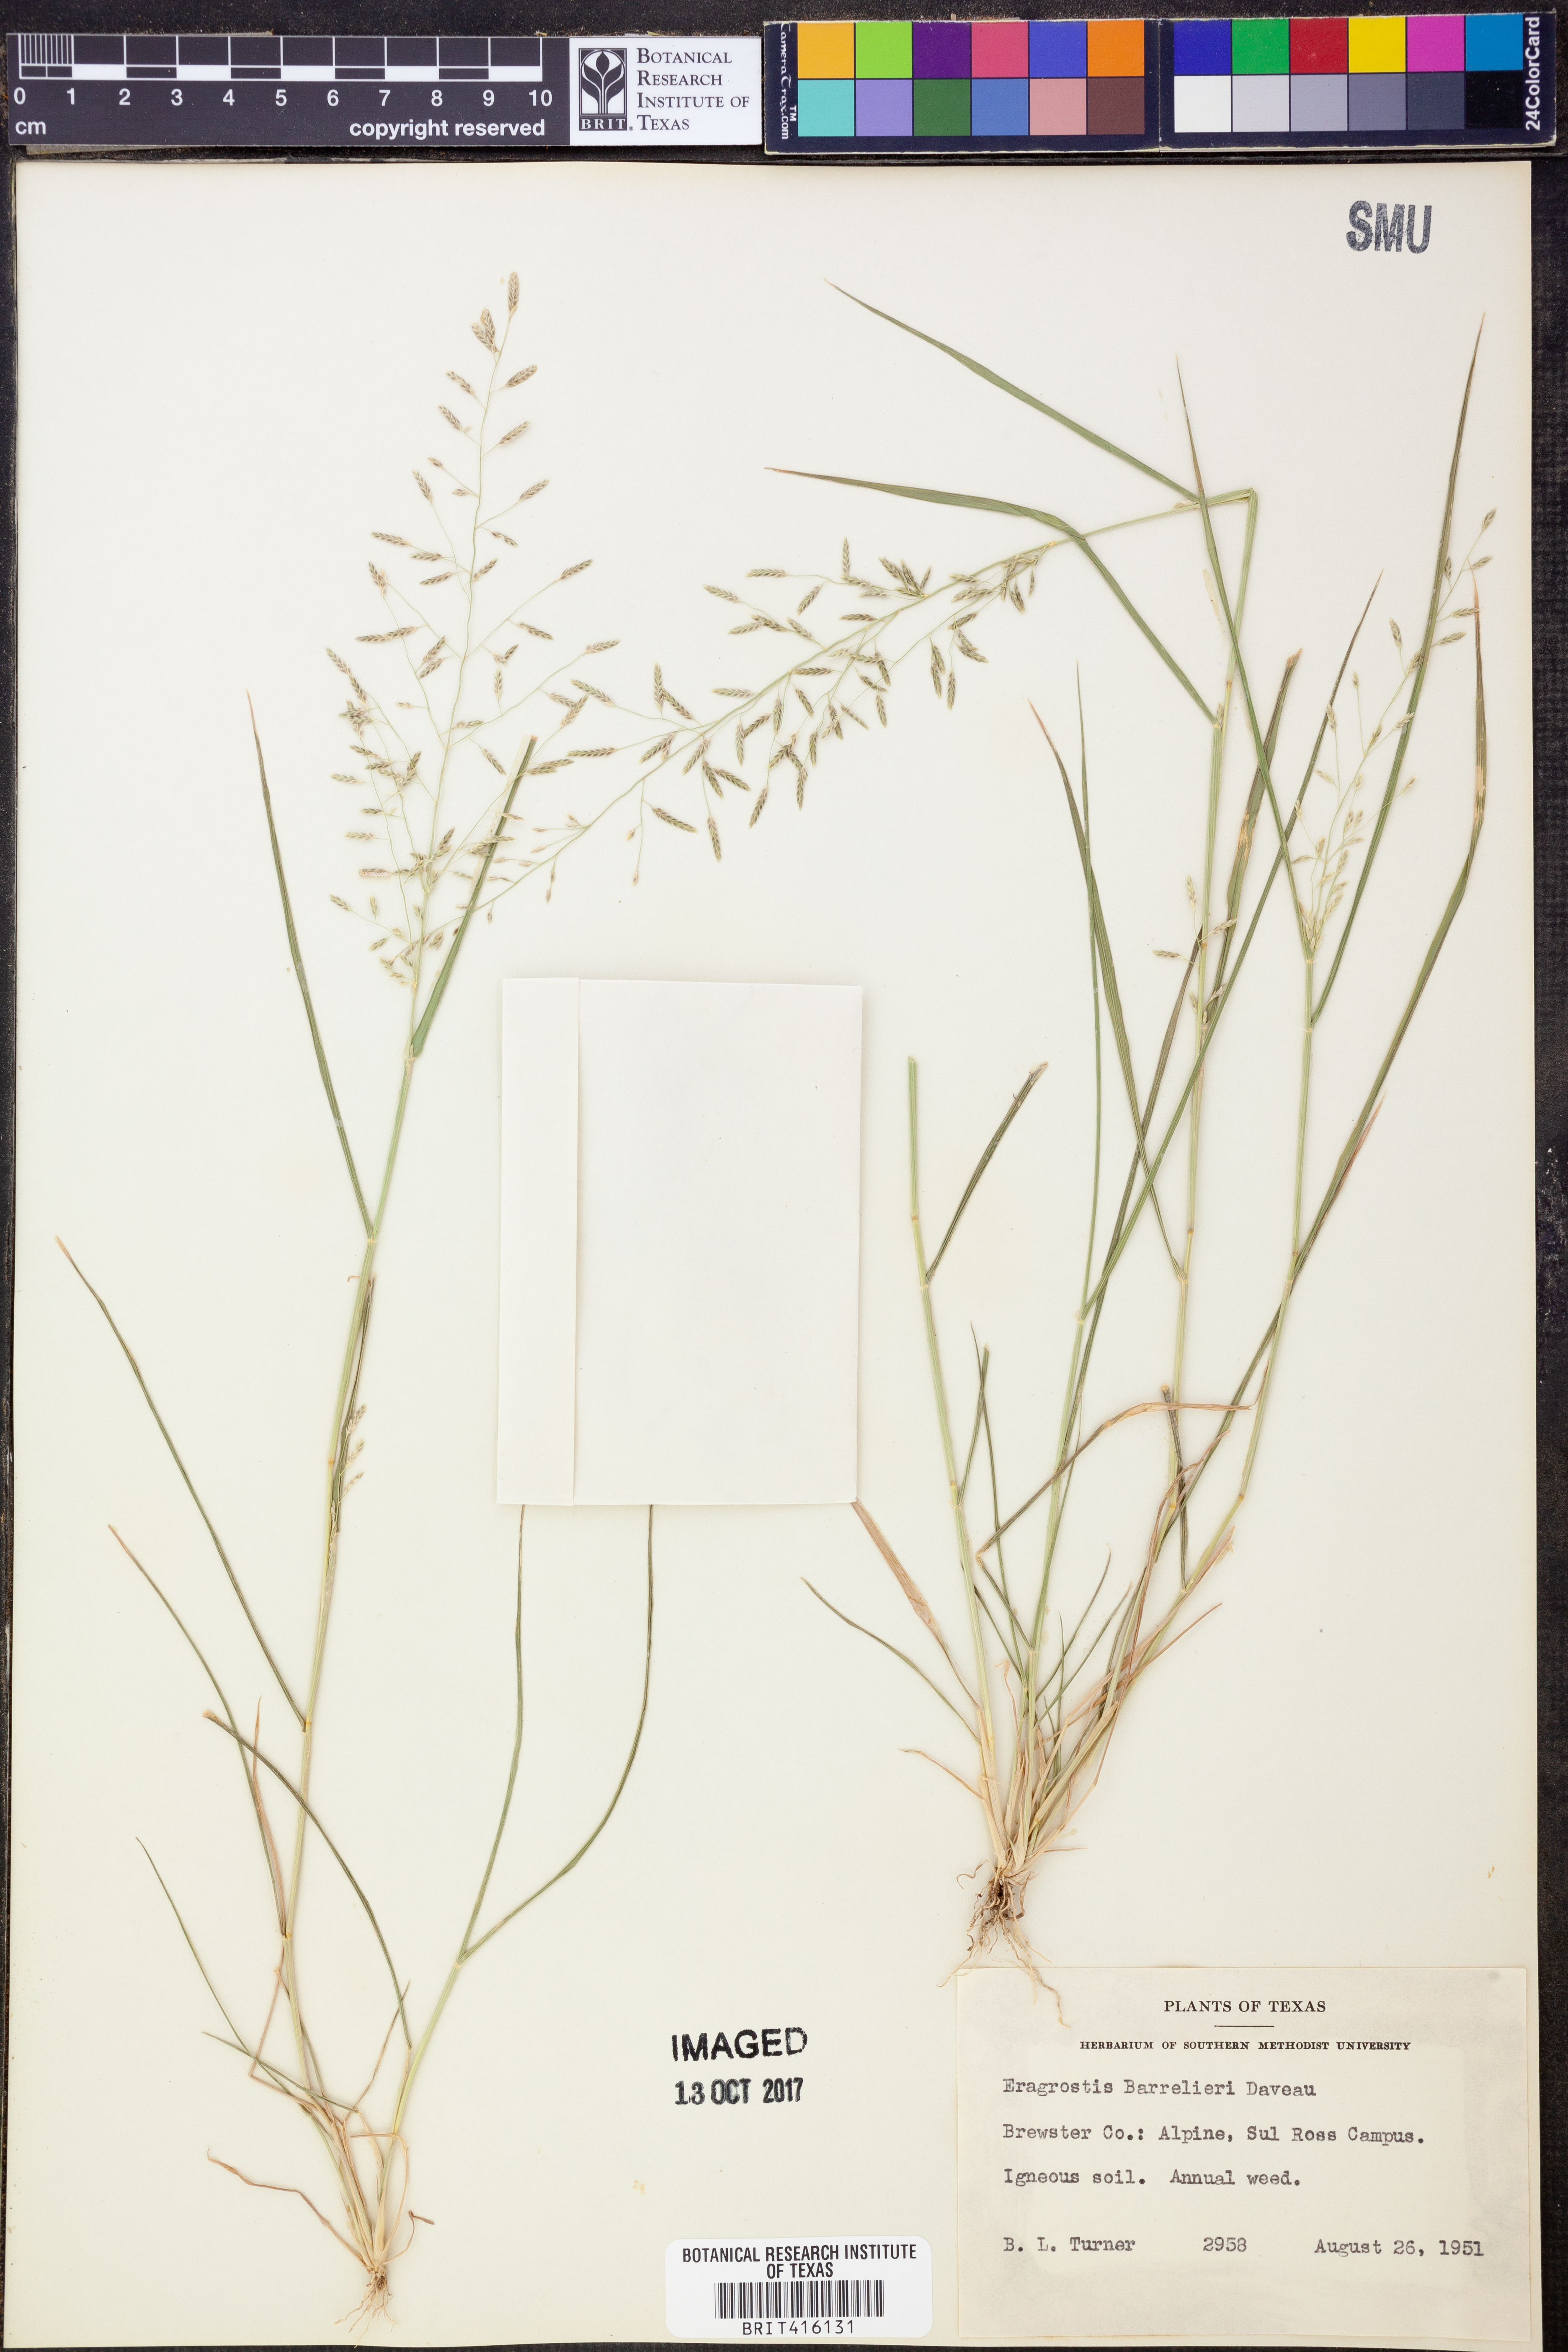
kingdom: Plantae
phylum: Tracheophyta
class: Liliopsida
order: Poales
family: Poaceae
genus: Eragrostis
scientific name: Eragrostis barrelieri
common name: Mediterranean lovegrass
